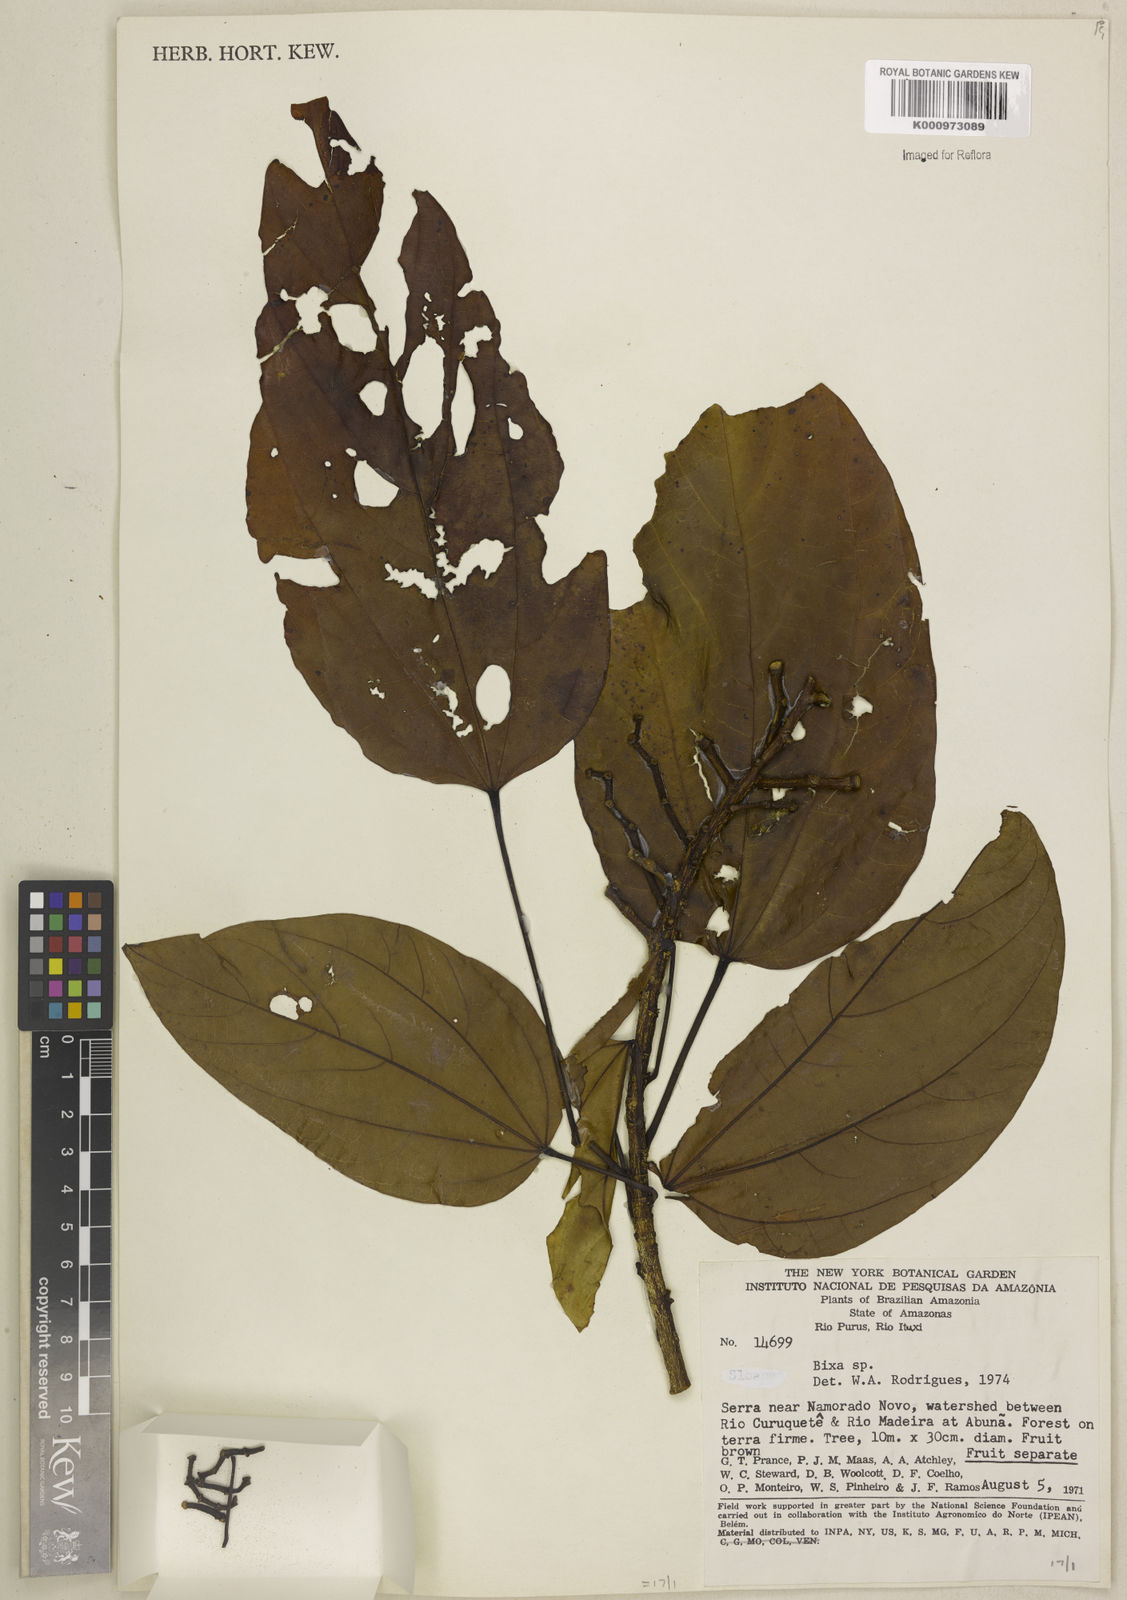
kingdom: Plantae
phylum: Tracheophyta
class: Magnoliopsida
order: Malvales
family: Bixaceae
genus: Bixa
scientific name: Bixa excelsa
